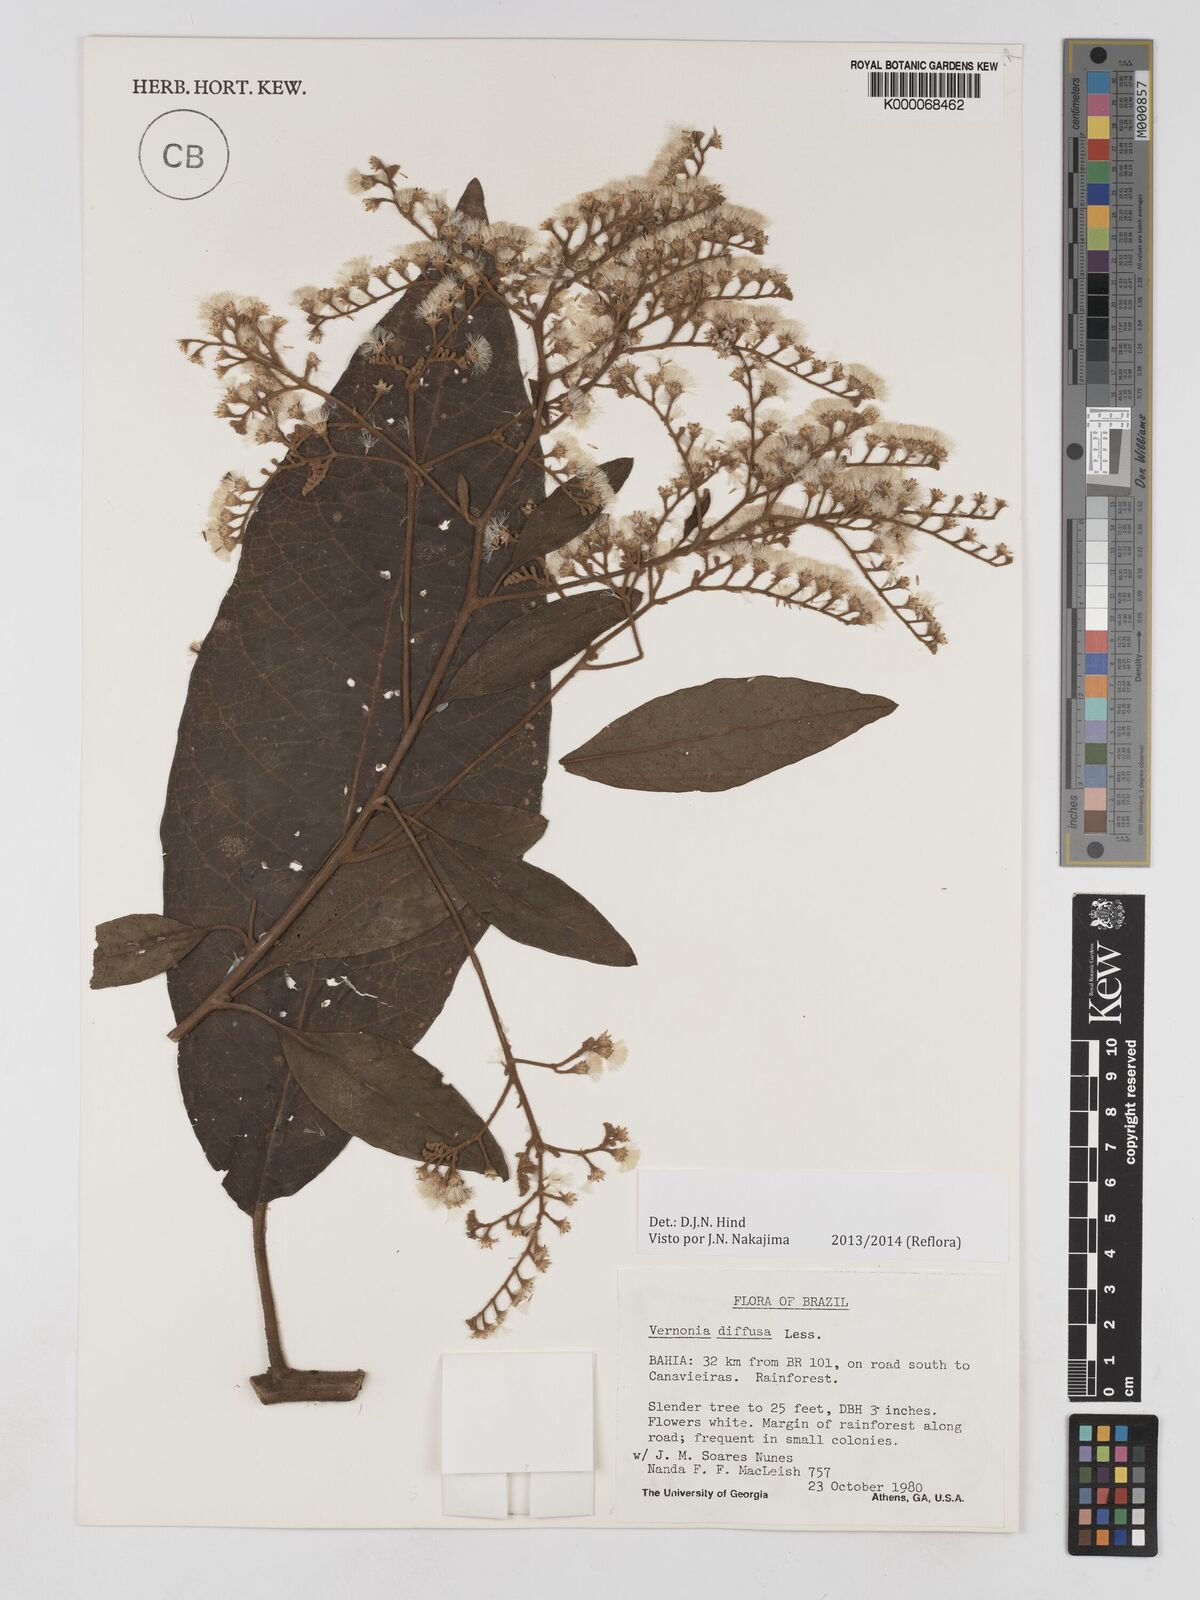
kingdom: Plantae
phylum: Tracheophyta
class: Magnoliopsida
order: Asterales
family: Asteraceae
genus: Vernonanthura
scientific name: Vernonanthura divaricata
